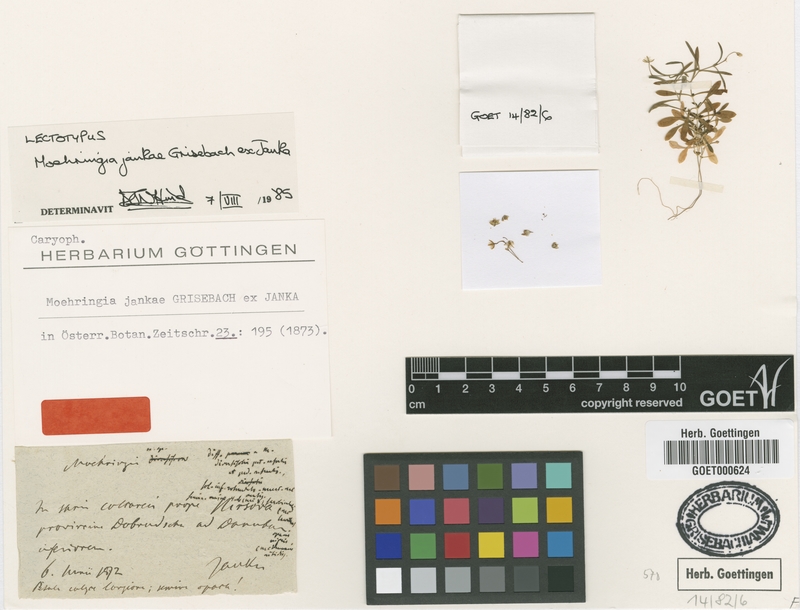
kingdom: Plantae
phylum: Tracheophyta
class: Magnoliopsida
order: Caryophyllales
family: Caryophyllaceae
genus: Moehringia
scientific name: Moehringia jankae
